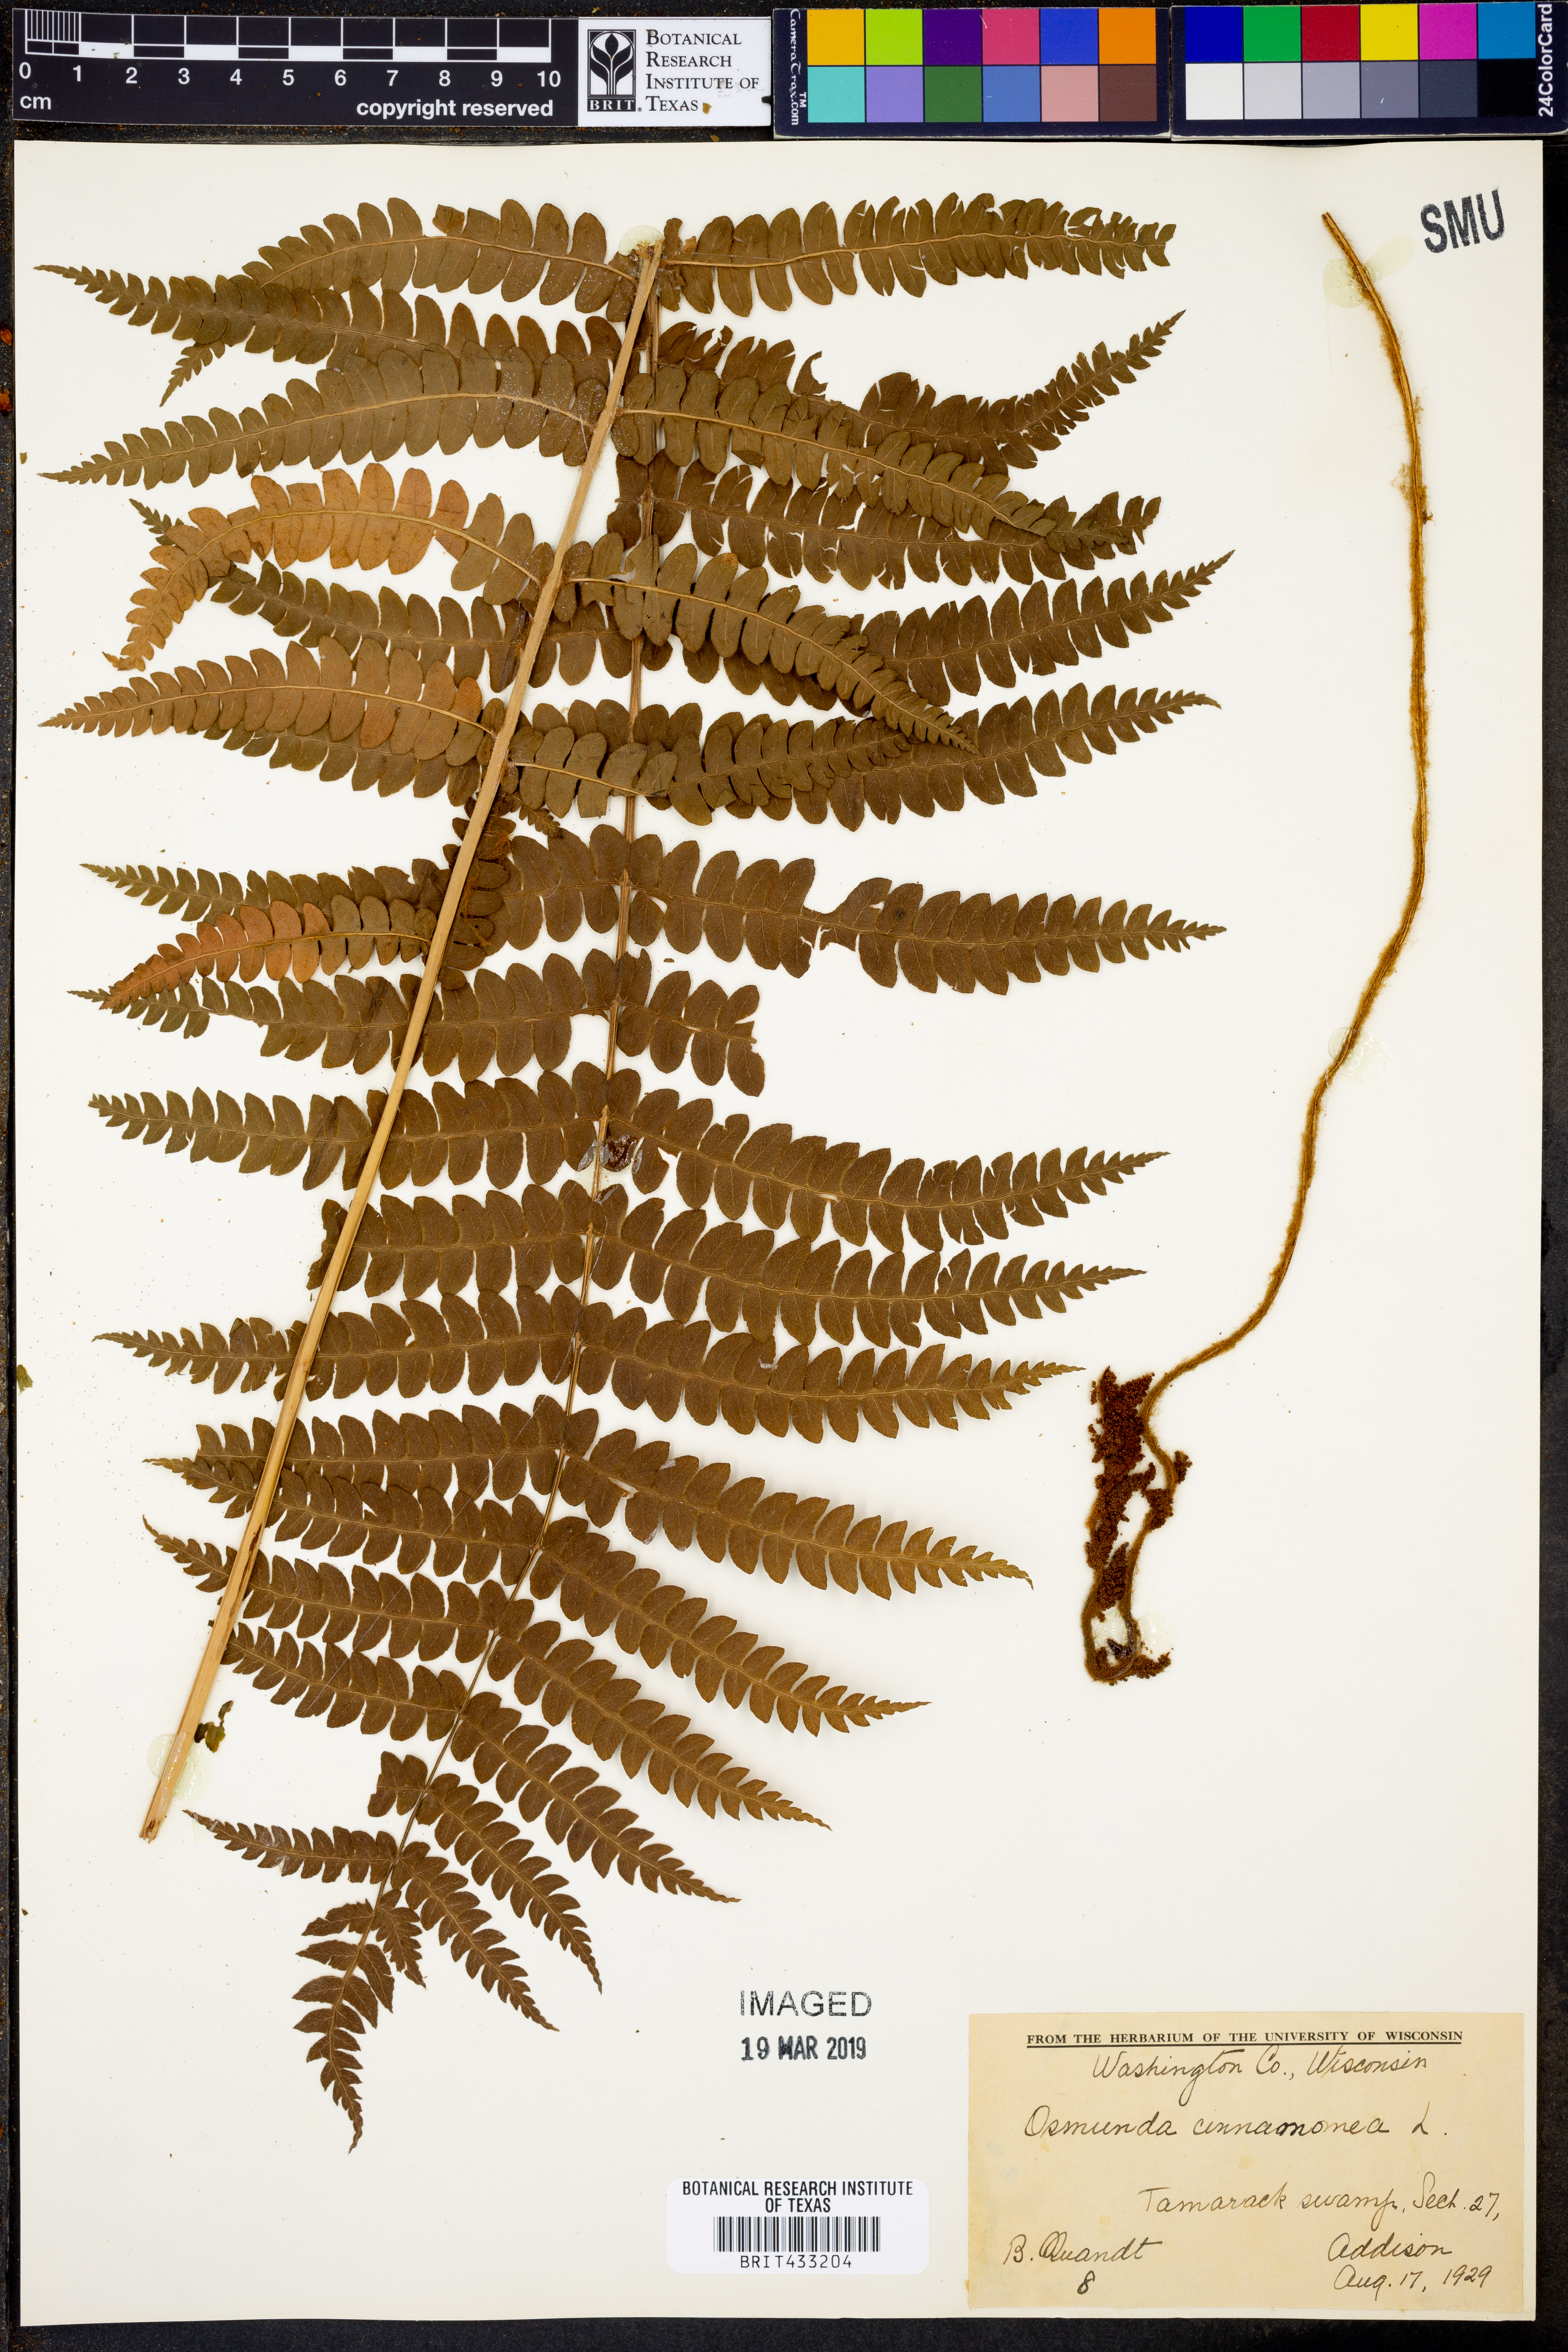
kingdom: Plantae
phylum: Tracheophyta
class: Polypodiopsida
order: Osmundales
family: Osmundaceae
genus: Osmundastrum
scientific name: Osmundastrum cinnamomeum
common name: Cinnamon fern
